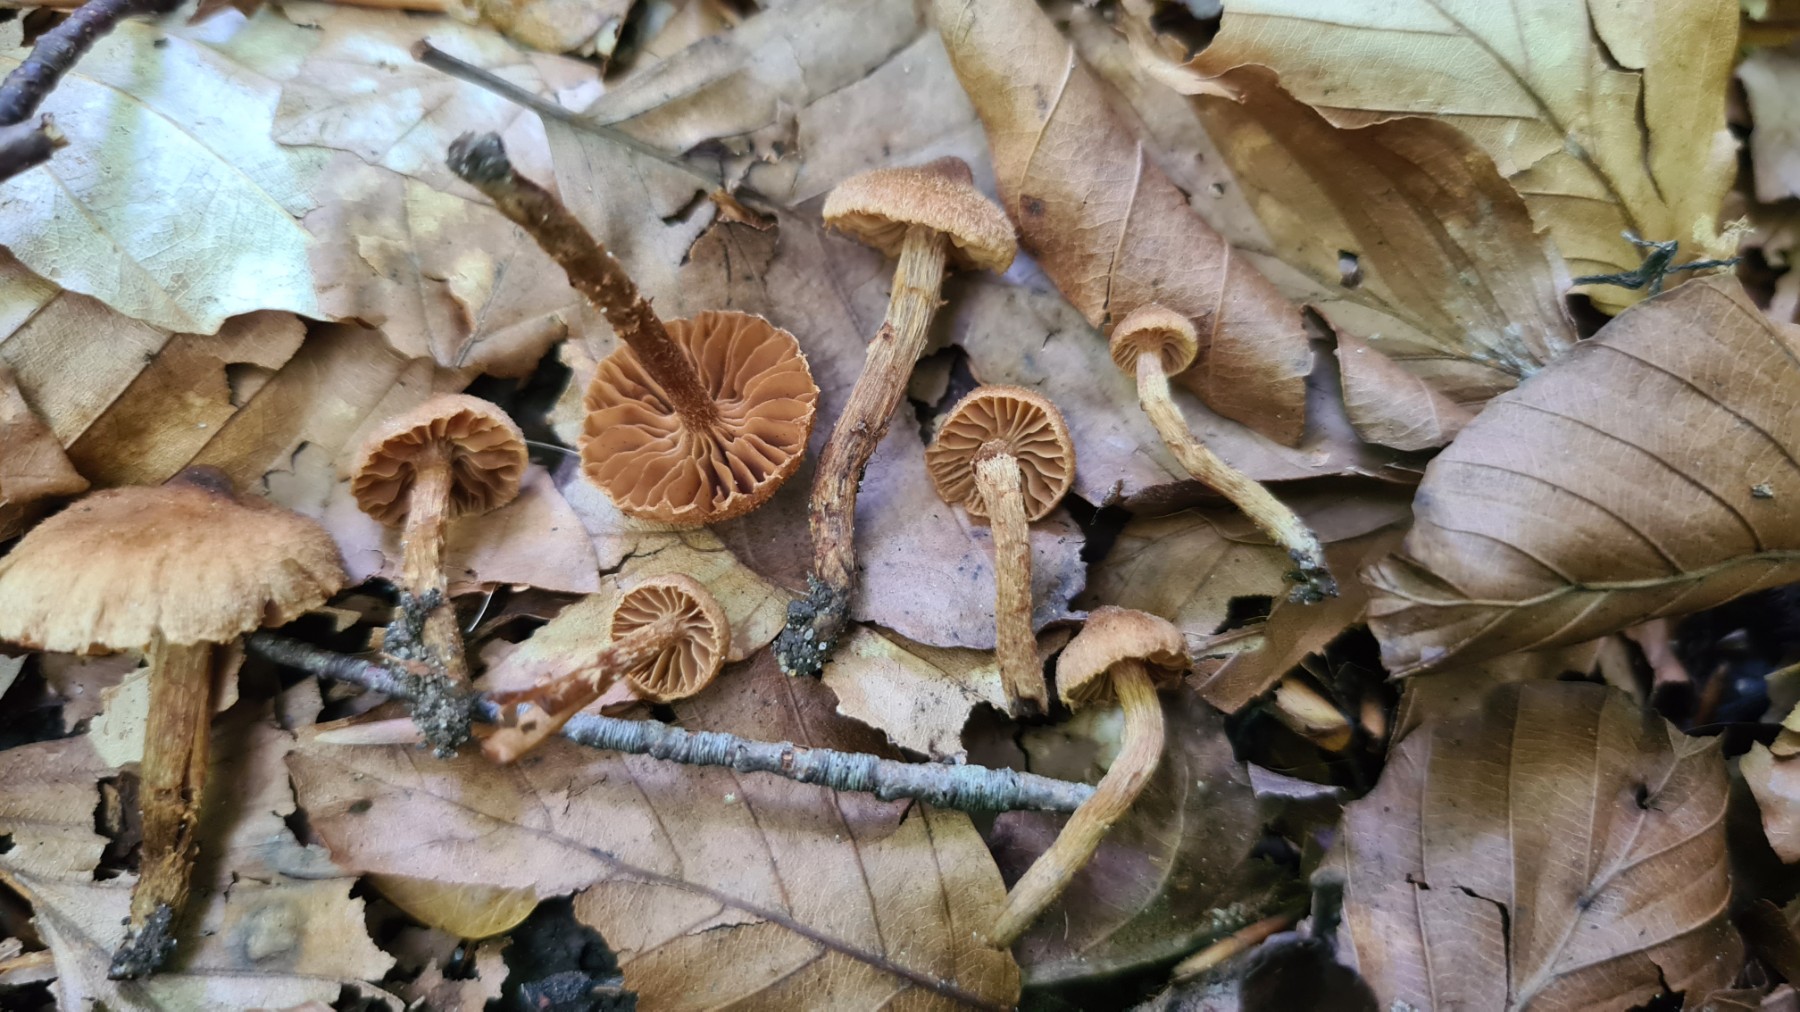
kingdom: Fungi
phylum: Basidiomycota
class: Agaricomycetes
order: Agaricales
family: Cortinariaceae
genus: Cortinarius
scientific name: Cortinarius
